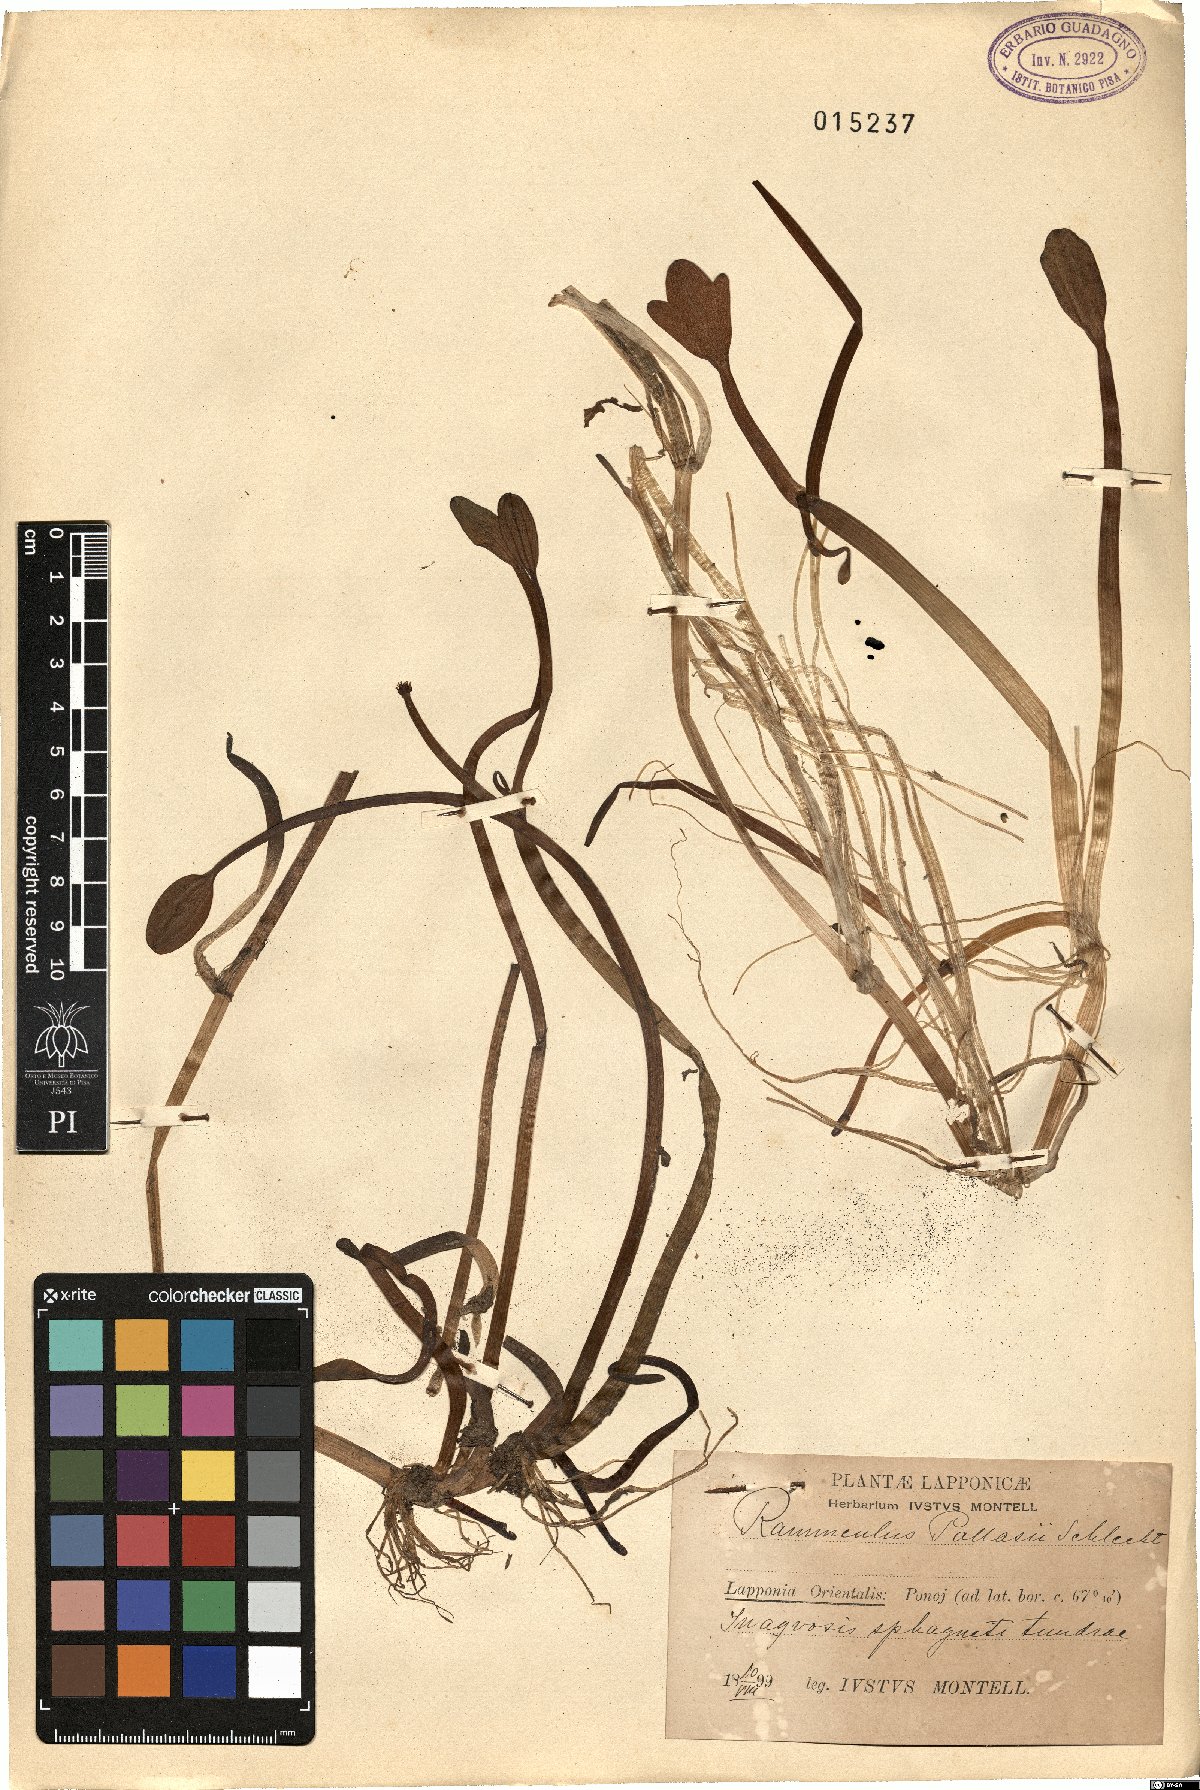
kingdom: Plantae
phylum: Tracheophyta
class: Magnoliopsida
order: Ranunculales
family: Ranunculaceae
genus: Coptidium
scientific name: Coptidium pallasii
